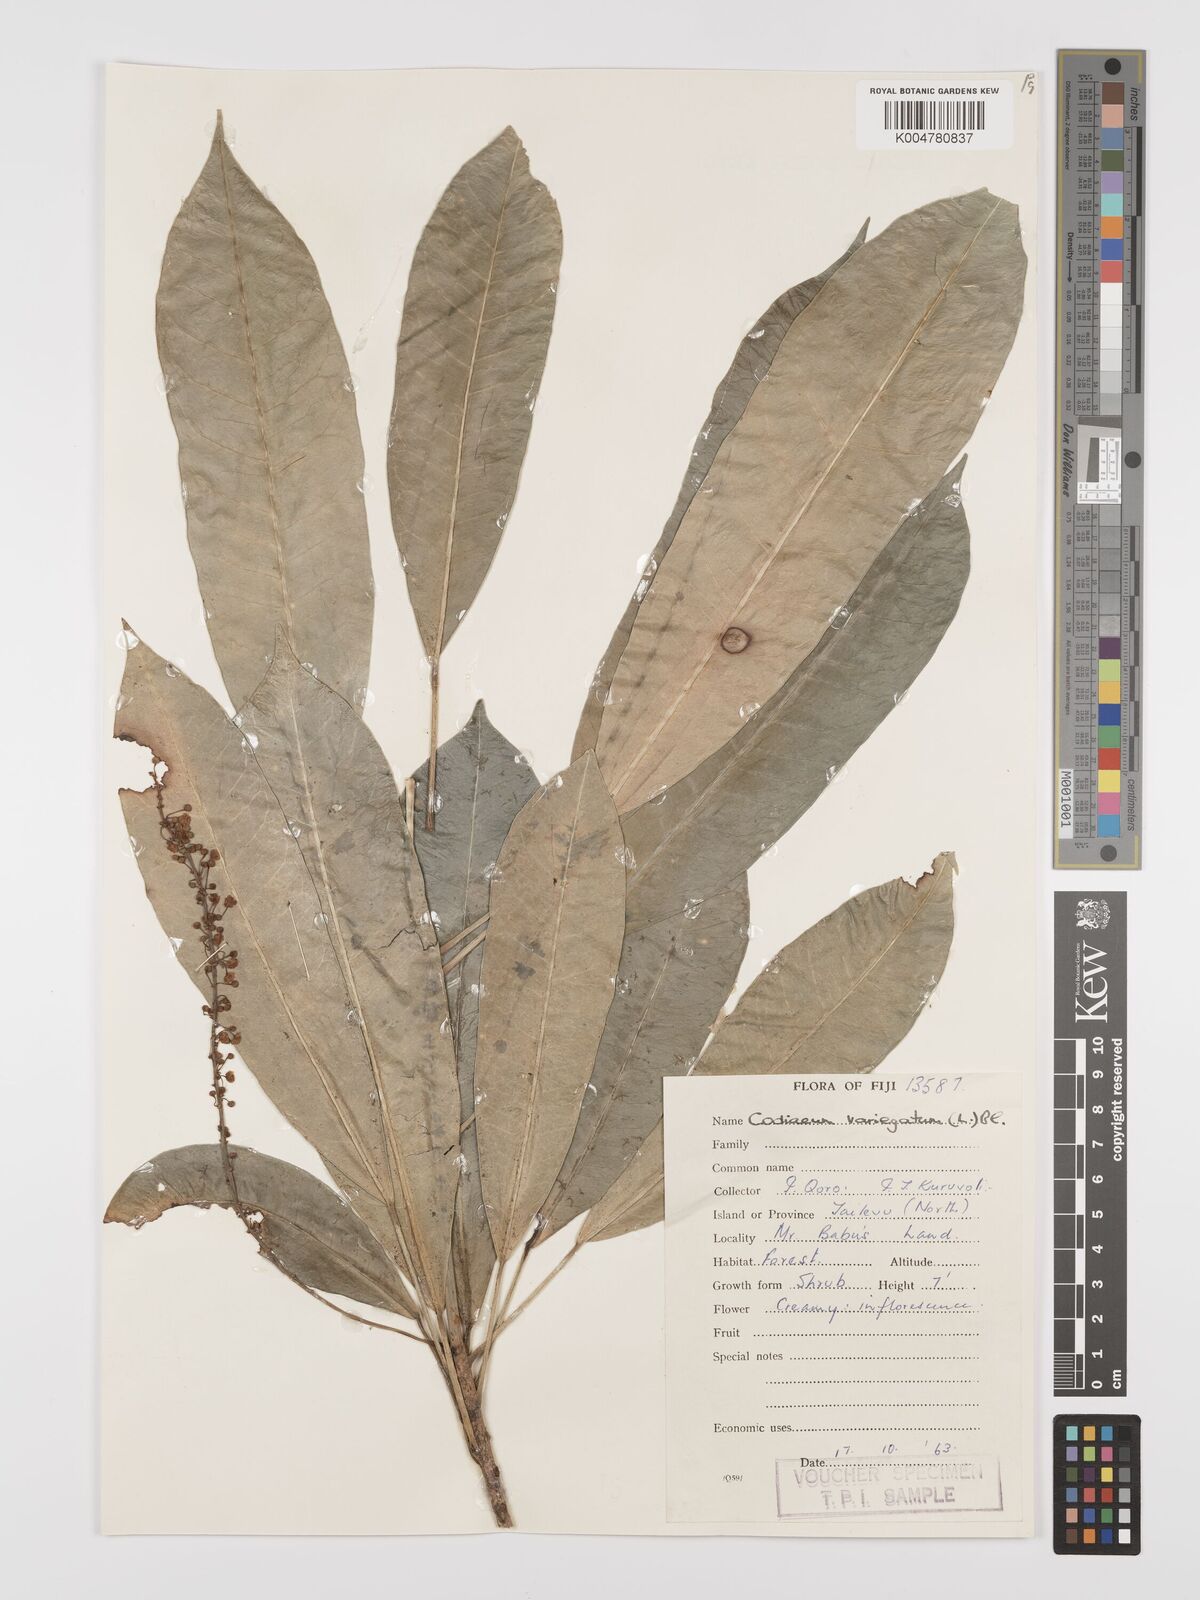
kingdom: Plantae
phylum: Tracheophyta
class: Magnoliopsida
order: Malpighiales
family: Euphorbiaceae
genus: Codiaeum
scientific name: Codiaeum variegatum
